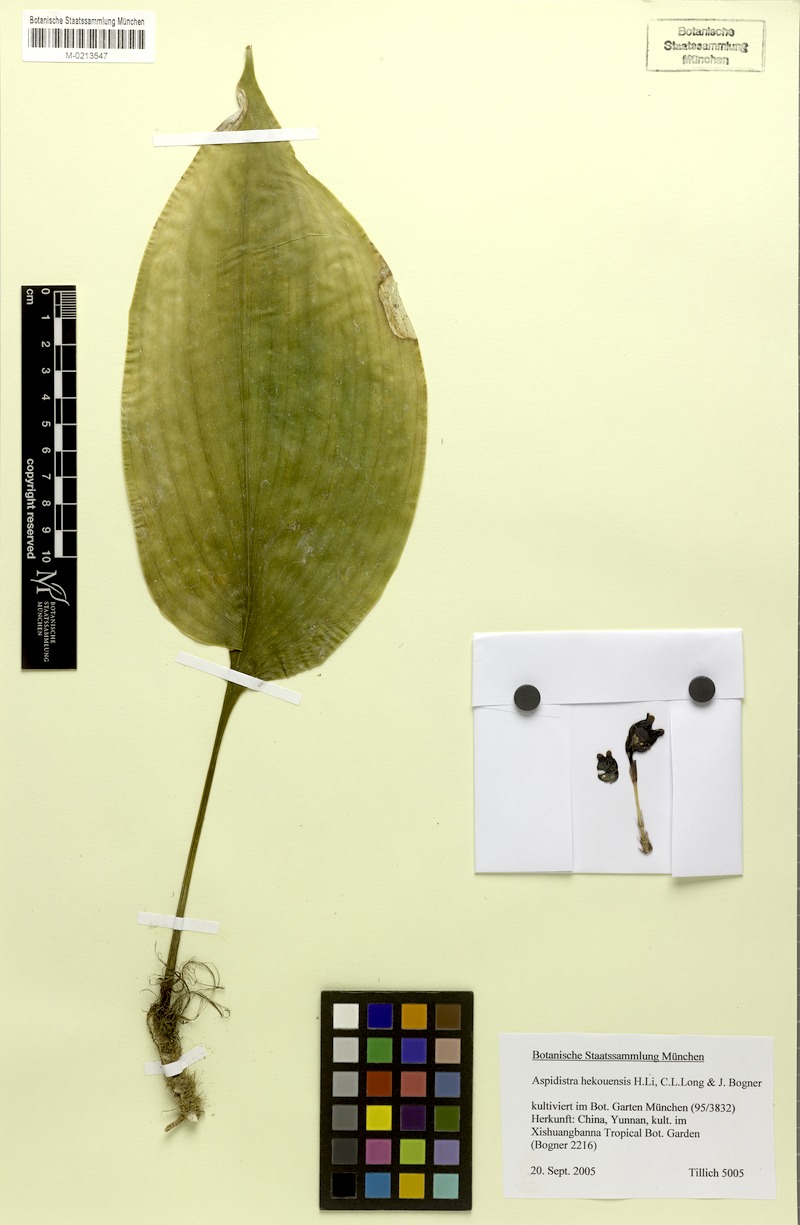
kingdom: Plantae
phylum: Tracheophyta
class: Liliopsida
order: Asparagales
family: Asparagaceae
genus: Aspidistra
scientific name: Aspidistra hekouensis
